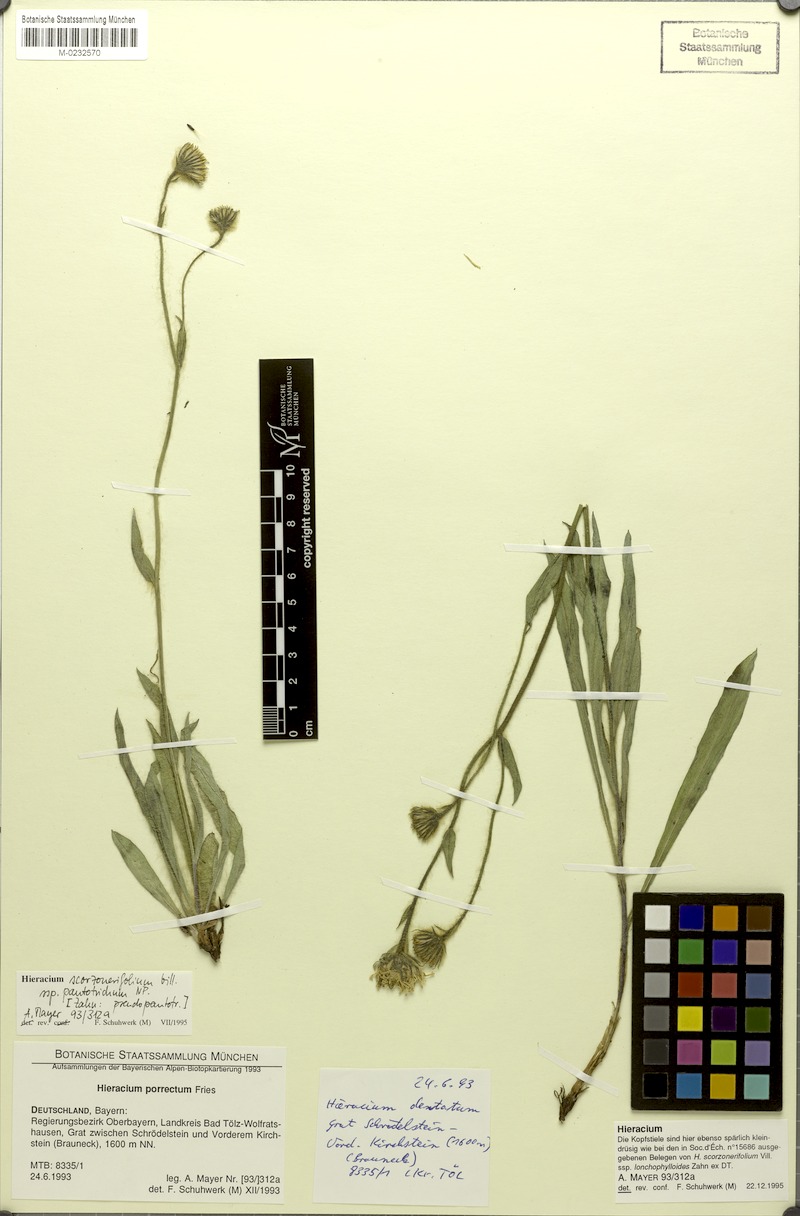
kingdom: Plantae
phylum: Tracheophyta
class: Magnoliopsida
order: Asterales
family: Asteraceae
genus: Hieracium
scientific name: Hieracium scorzonerifolium
